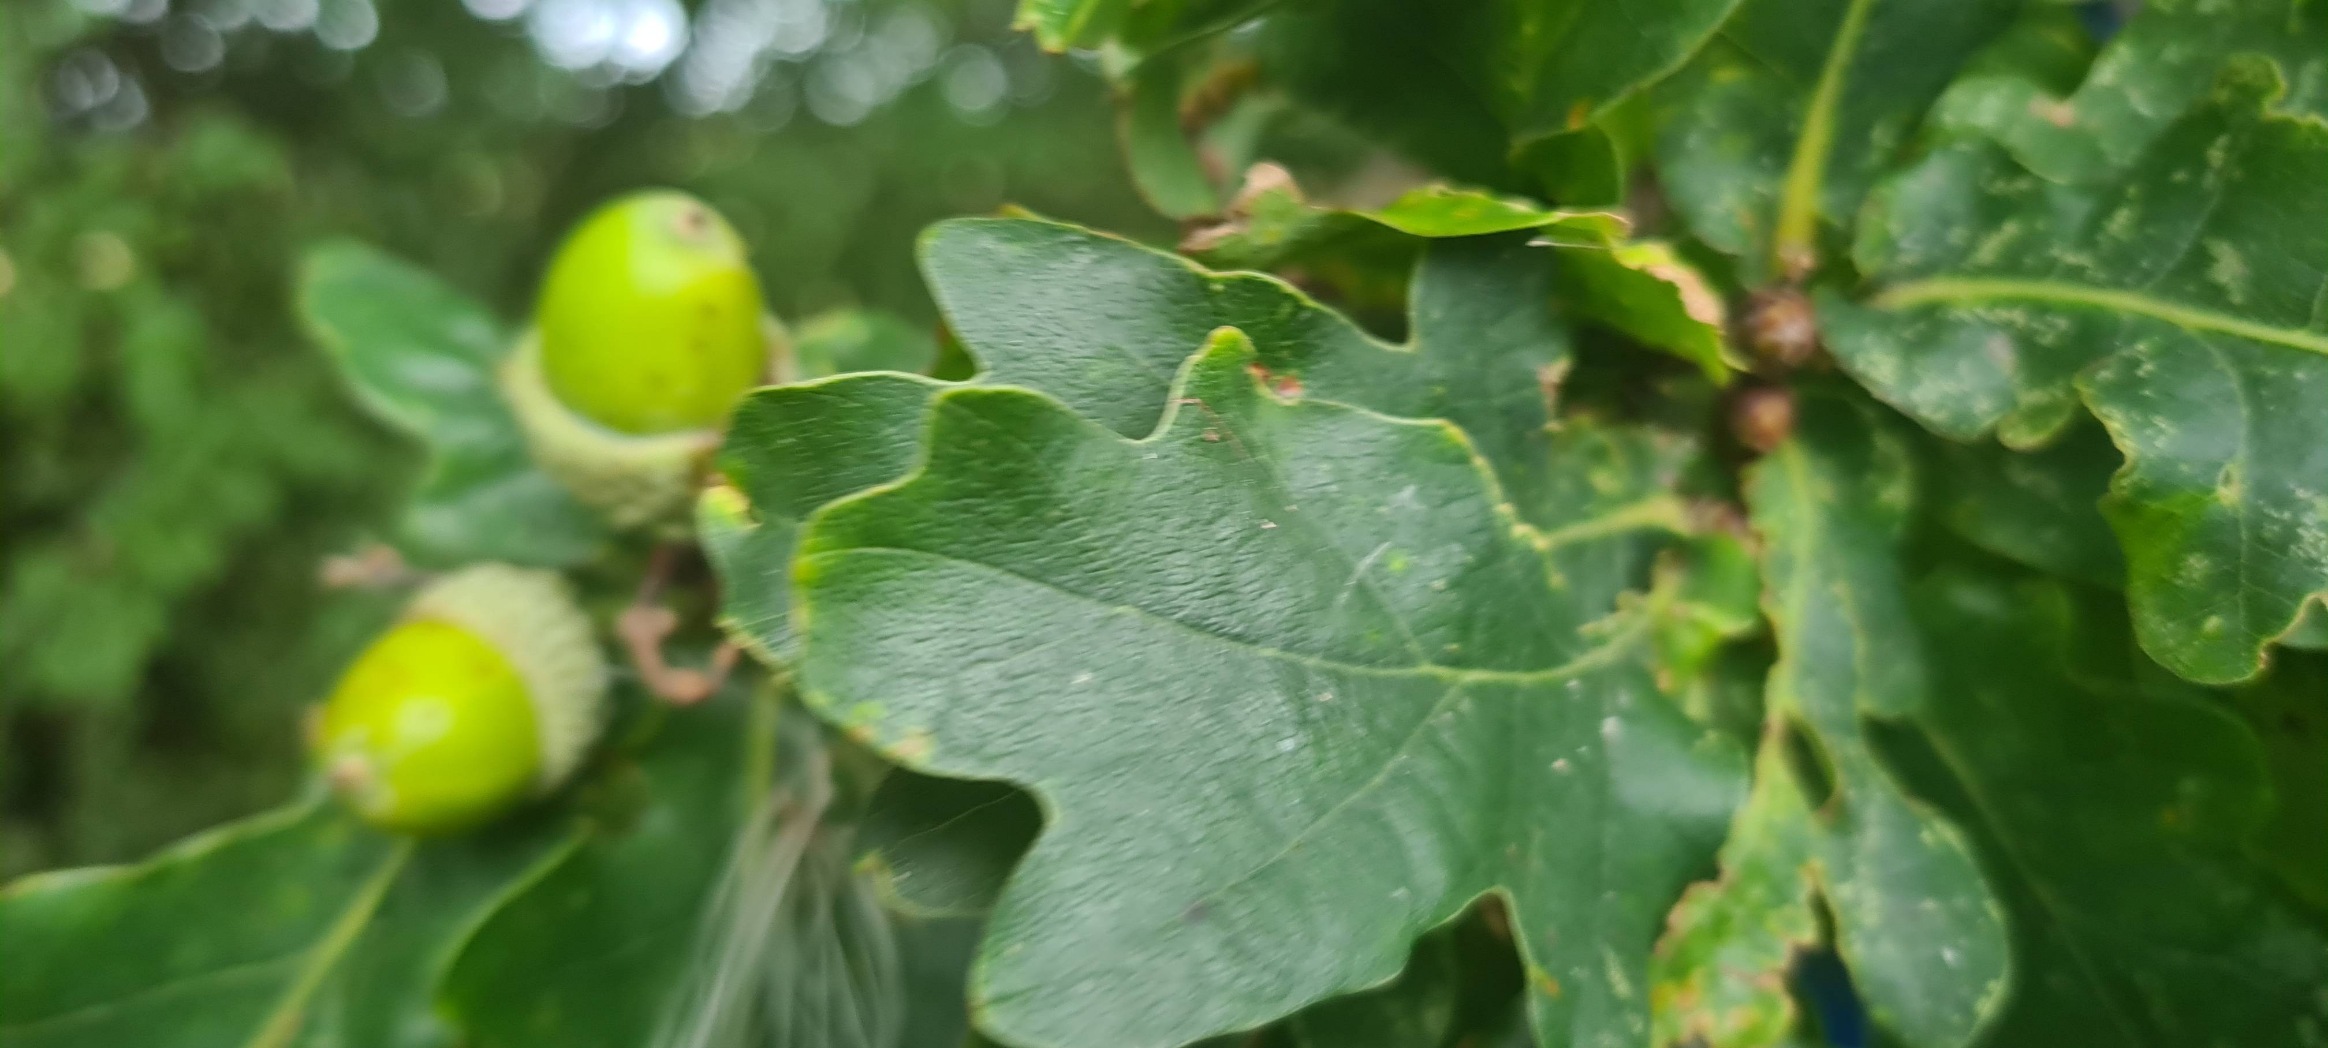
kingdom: Plantae
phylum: Tracheophyta
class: Magnoliopsida
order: Fagales
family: Fagaceae
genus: Quercus
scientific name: Quercus robur
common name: Stilk-eg/almindelig eg
